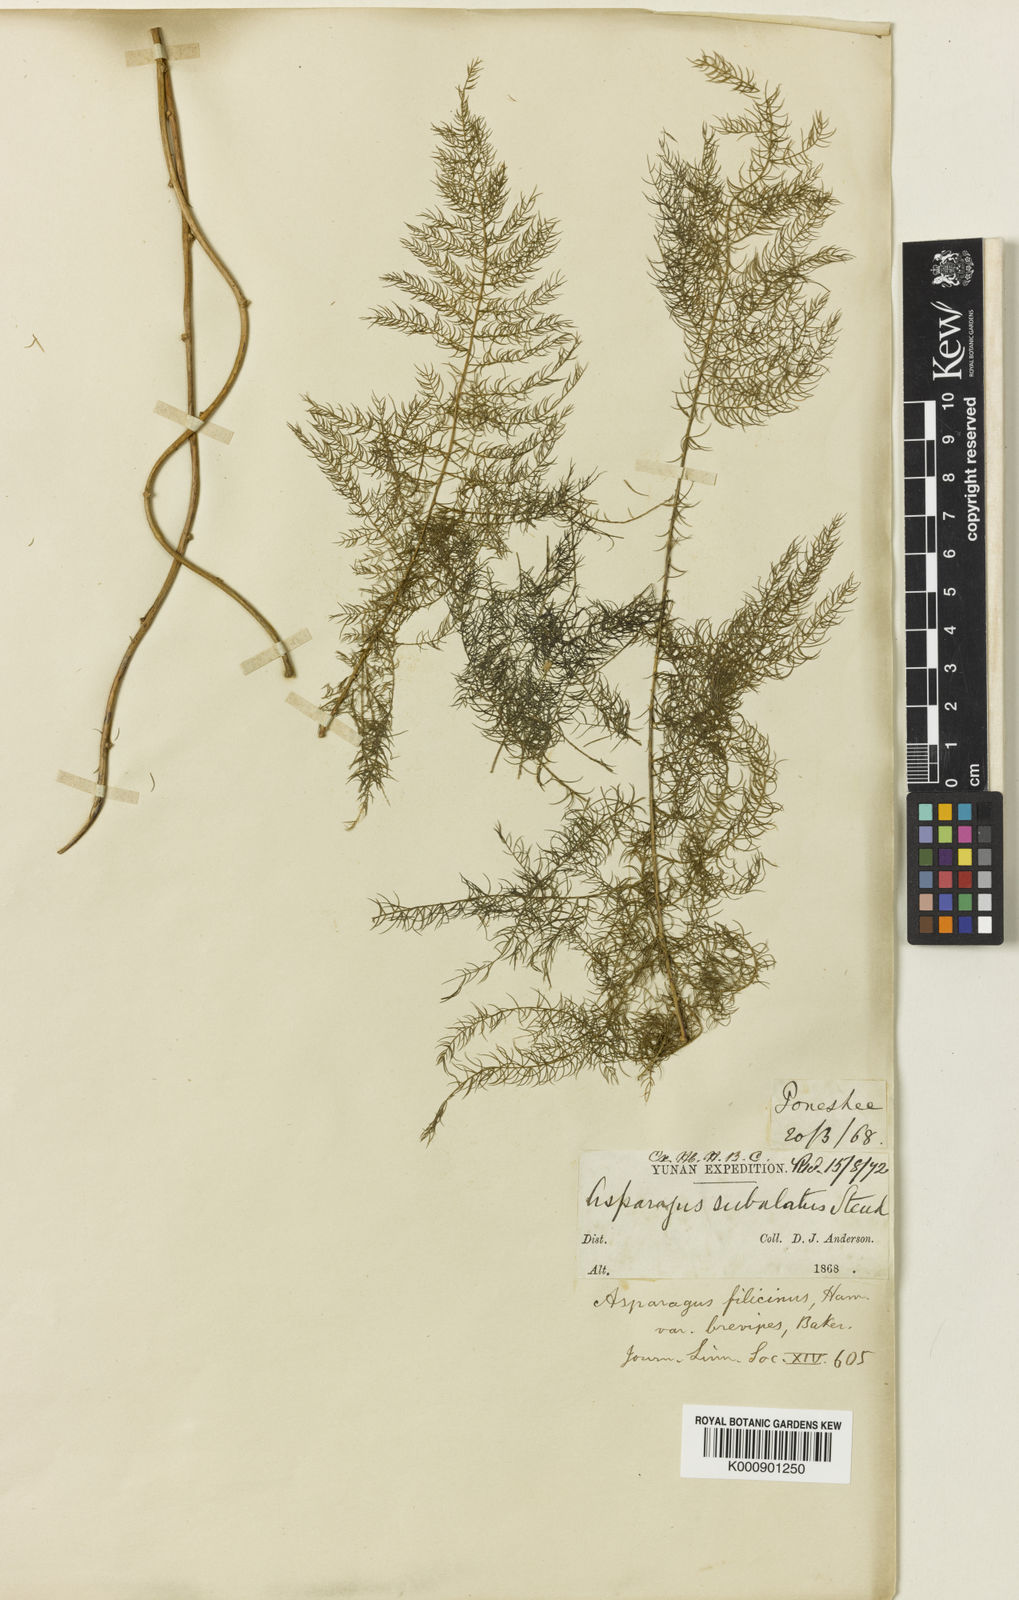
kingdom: Plantae
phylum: Tracheophyta
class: Liliopsida
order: Asparagales
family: Asparagaceae
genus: Asparagus
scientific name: Asparagus filicinus
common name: Fern asparagus
